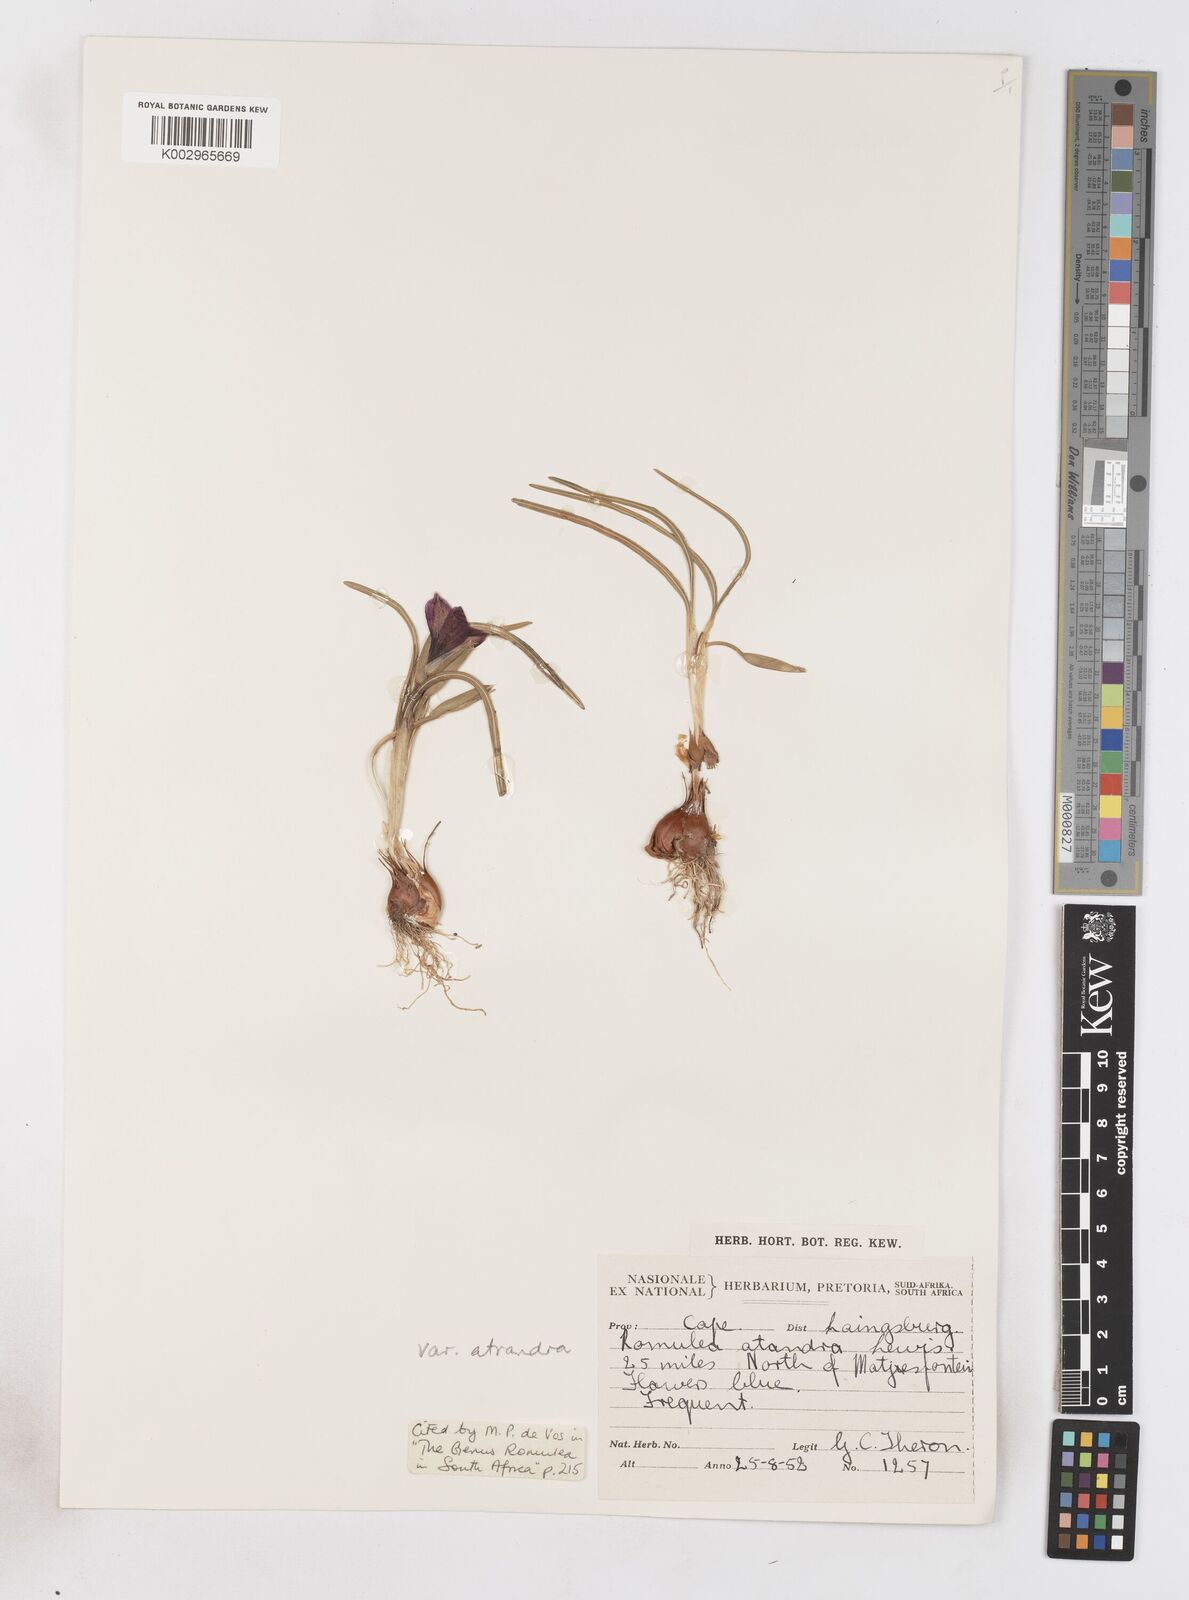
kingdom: Plantae
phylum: Tracheophyta
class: Liliopsida
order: Asparagales
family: Iridaceae
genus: Romulea
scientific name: Romulea atrandra
